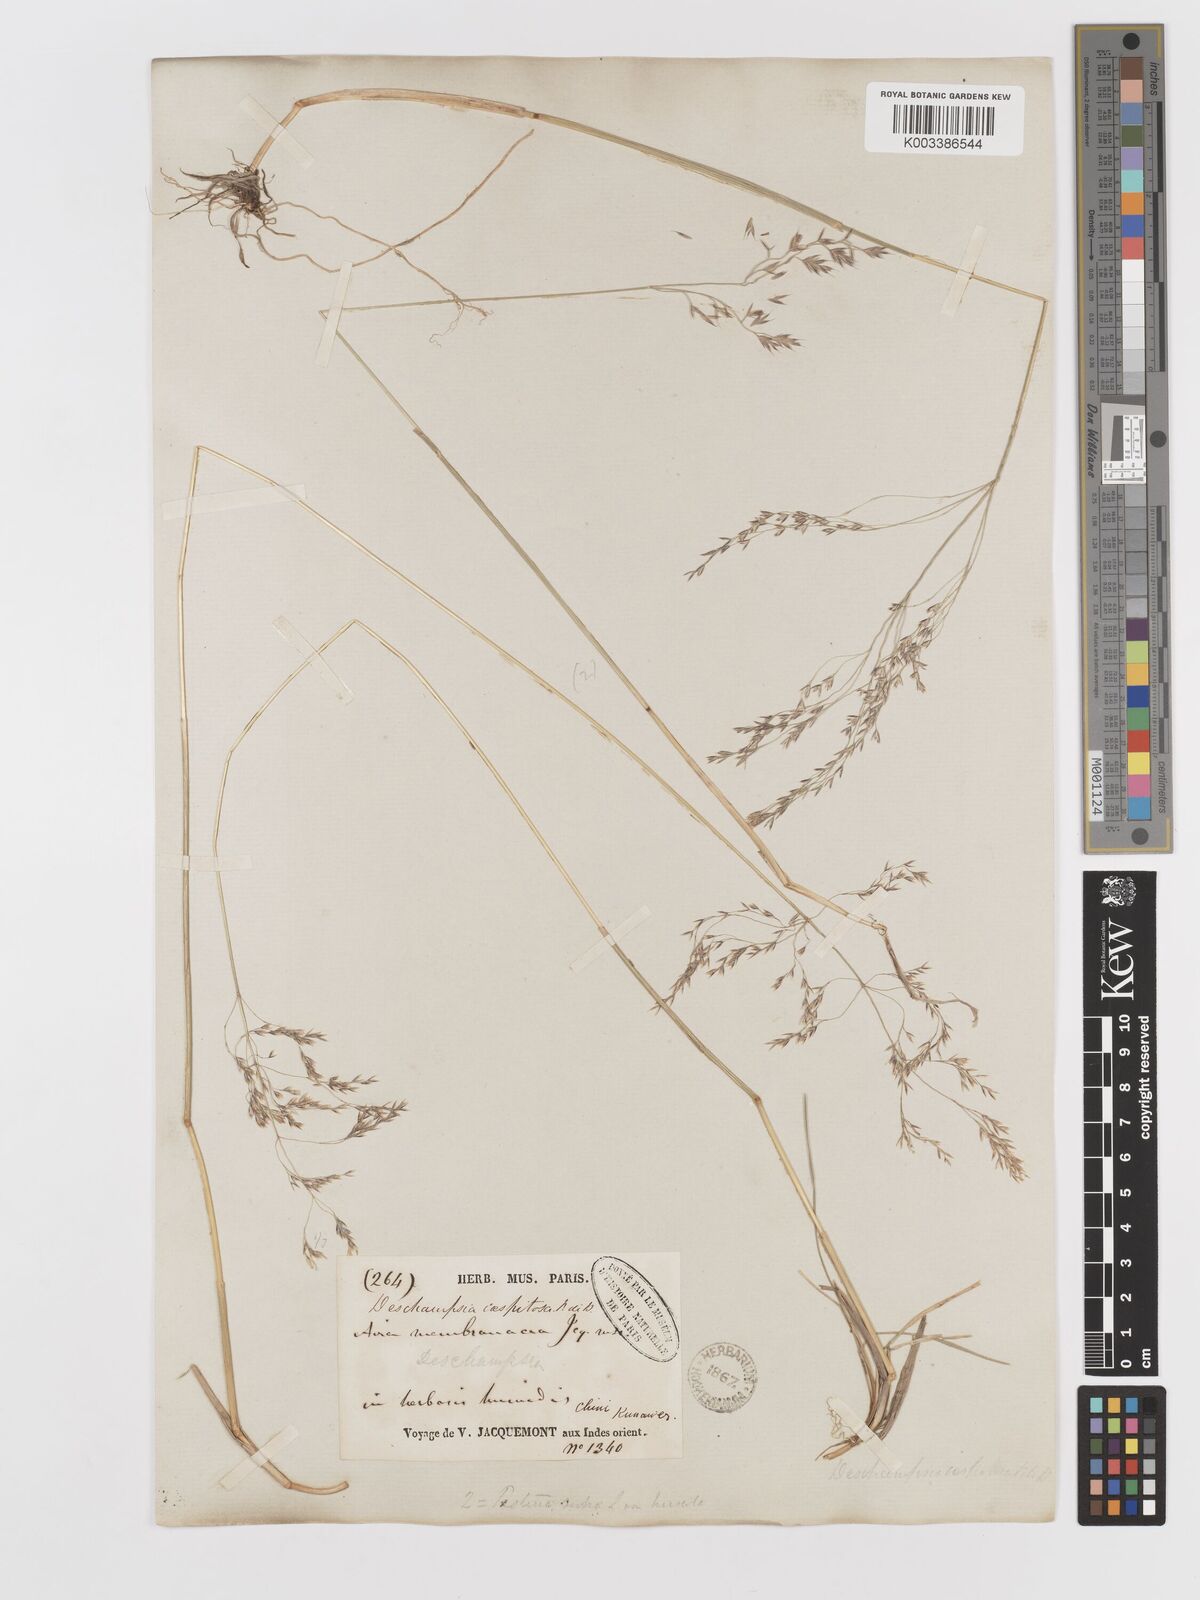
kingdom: Plantae
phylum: Tracheophyta
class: Liliopsida
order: Poales
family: Poaceae
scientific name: Poaceae
